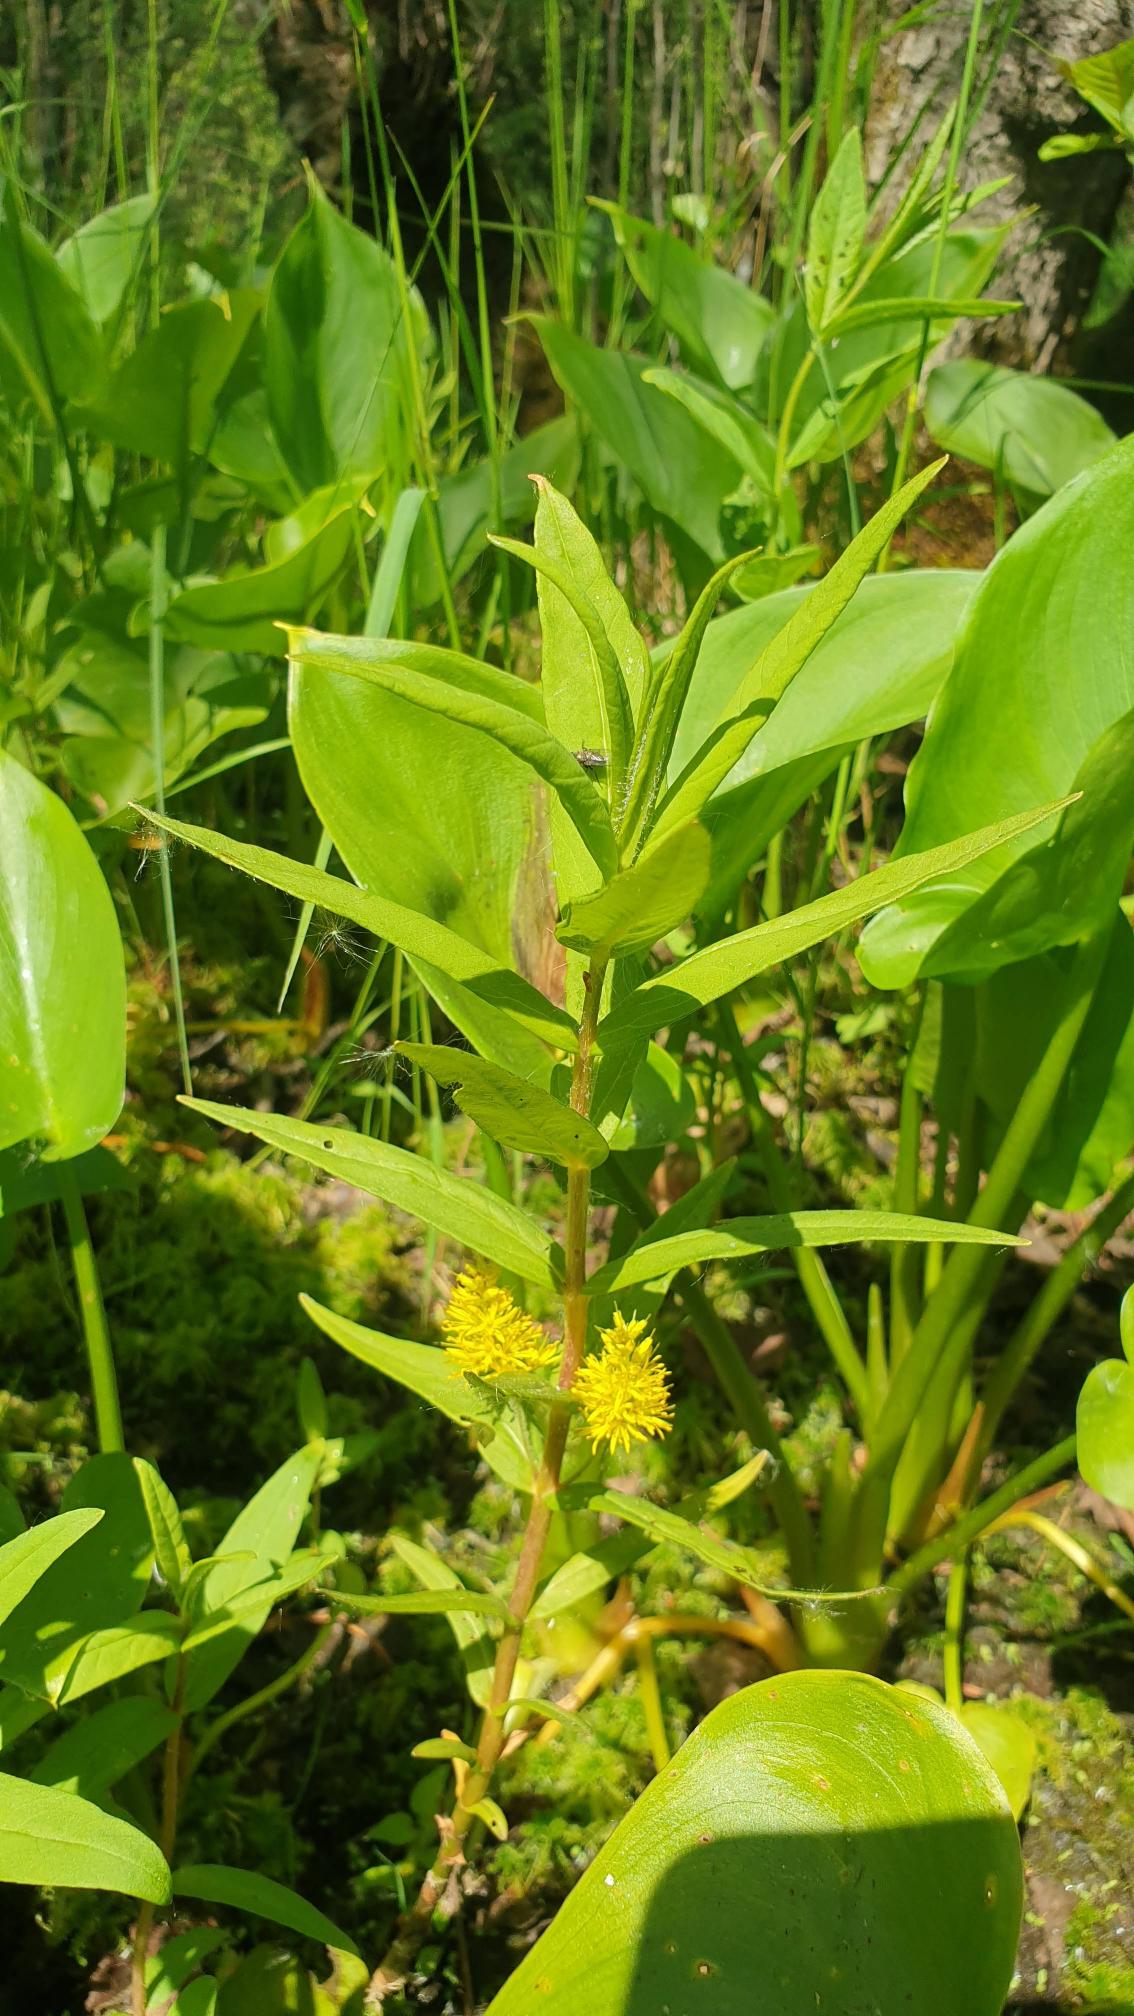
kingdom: Plantae
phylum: Tracheophyta
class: Magnoliopsida
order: Ericales
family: Primulaceae
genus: Lysimachia
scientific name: Lysimachia thyrsiflora
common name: Dusk-fredløs
